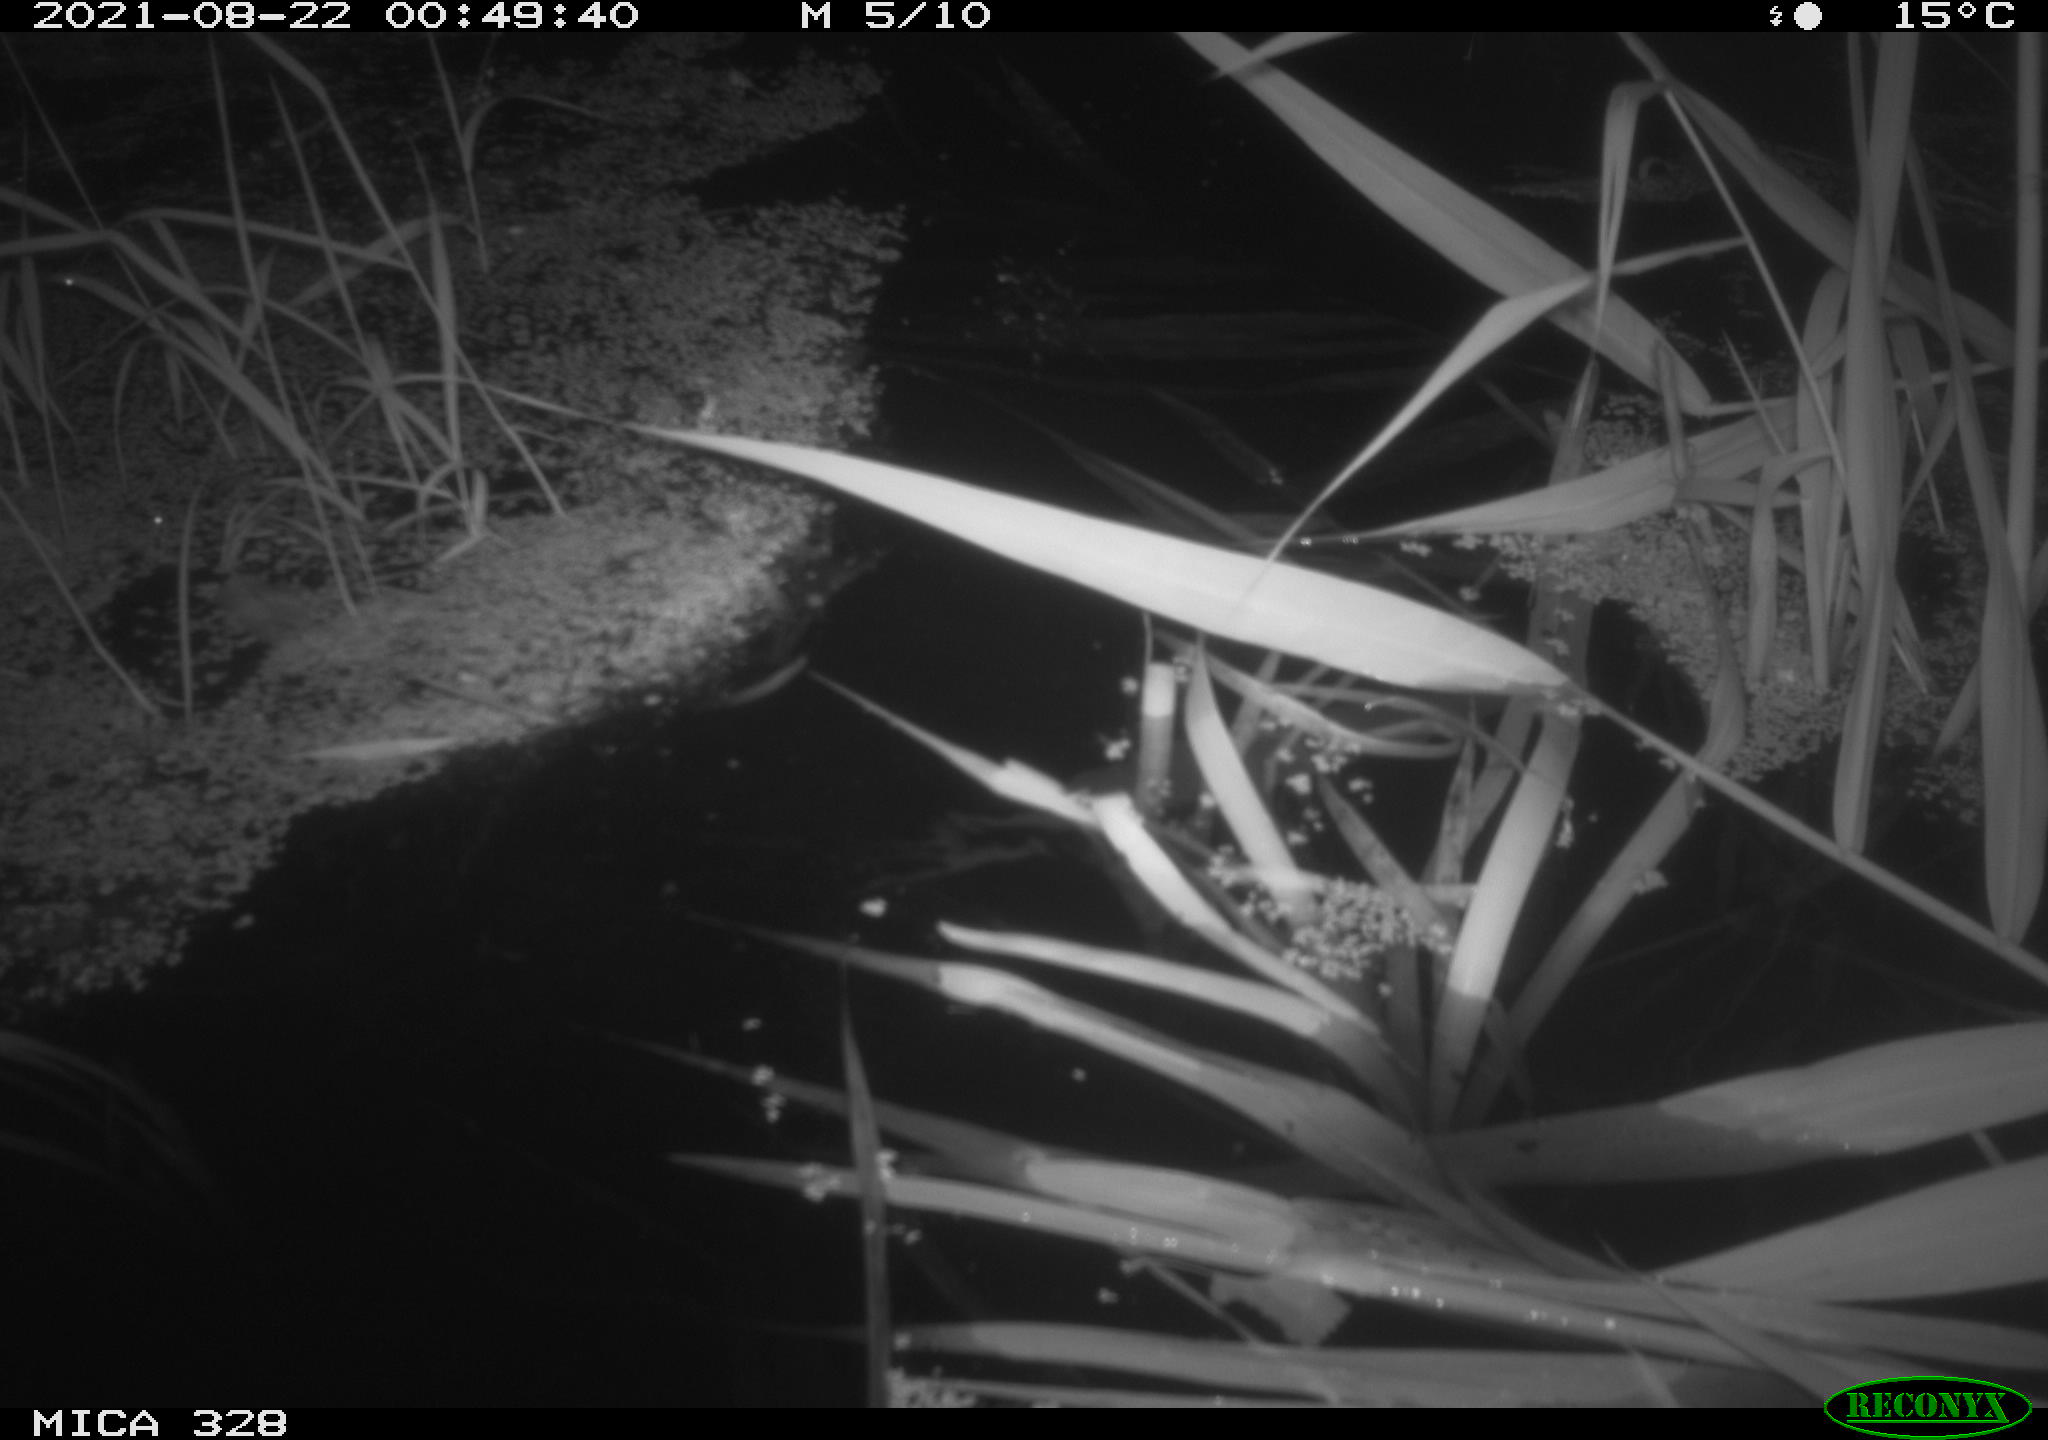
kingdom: Animalia
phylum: Chordata
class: Mammalia
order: Rodentia
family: Cricetidae
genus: Ondatra
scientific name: Ondatra zibethicus
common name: Muskrat
